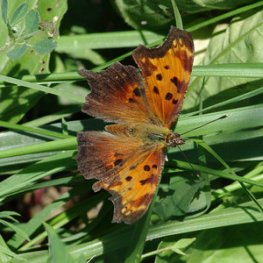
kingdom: Animalia
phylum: Arthropoda
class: Insecta
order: Lepidoptera
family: Nymphalidae
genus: Polygonia
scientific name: Polygonia progne
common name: Gray Comma
